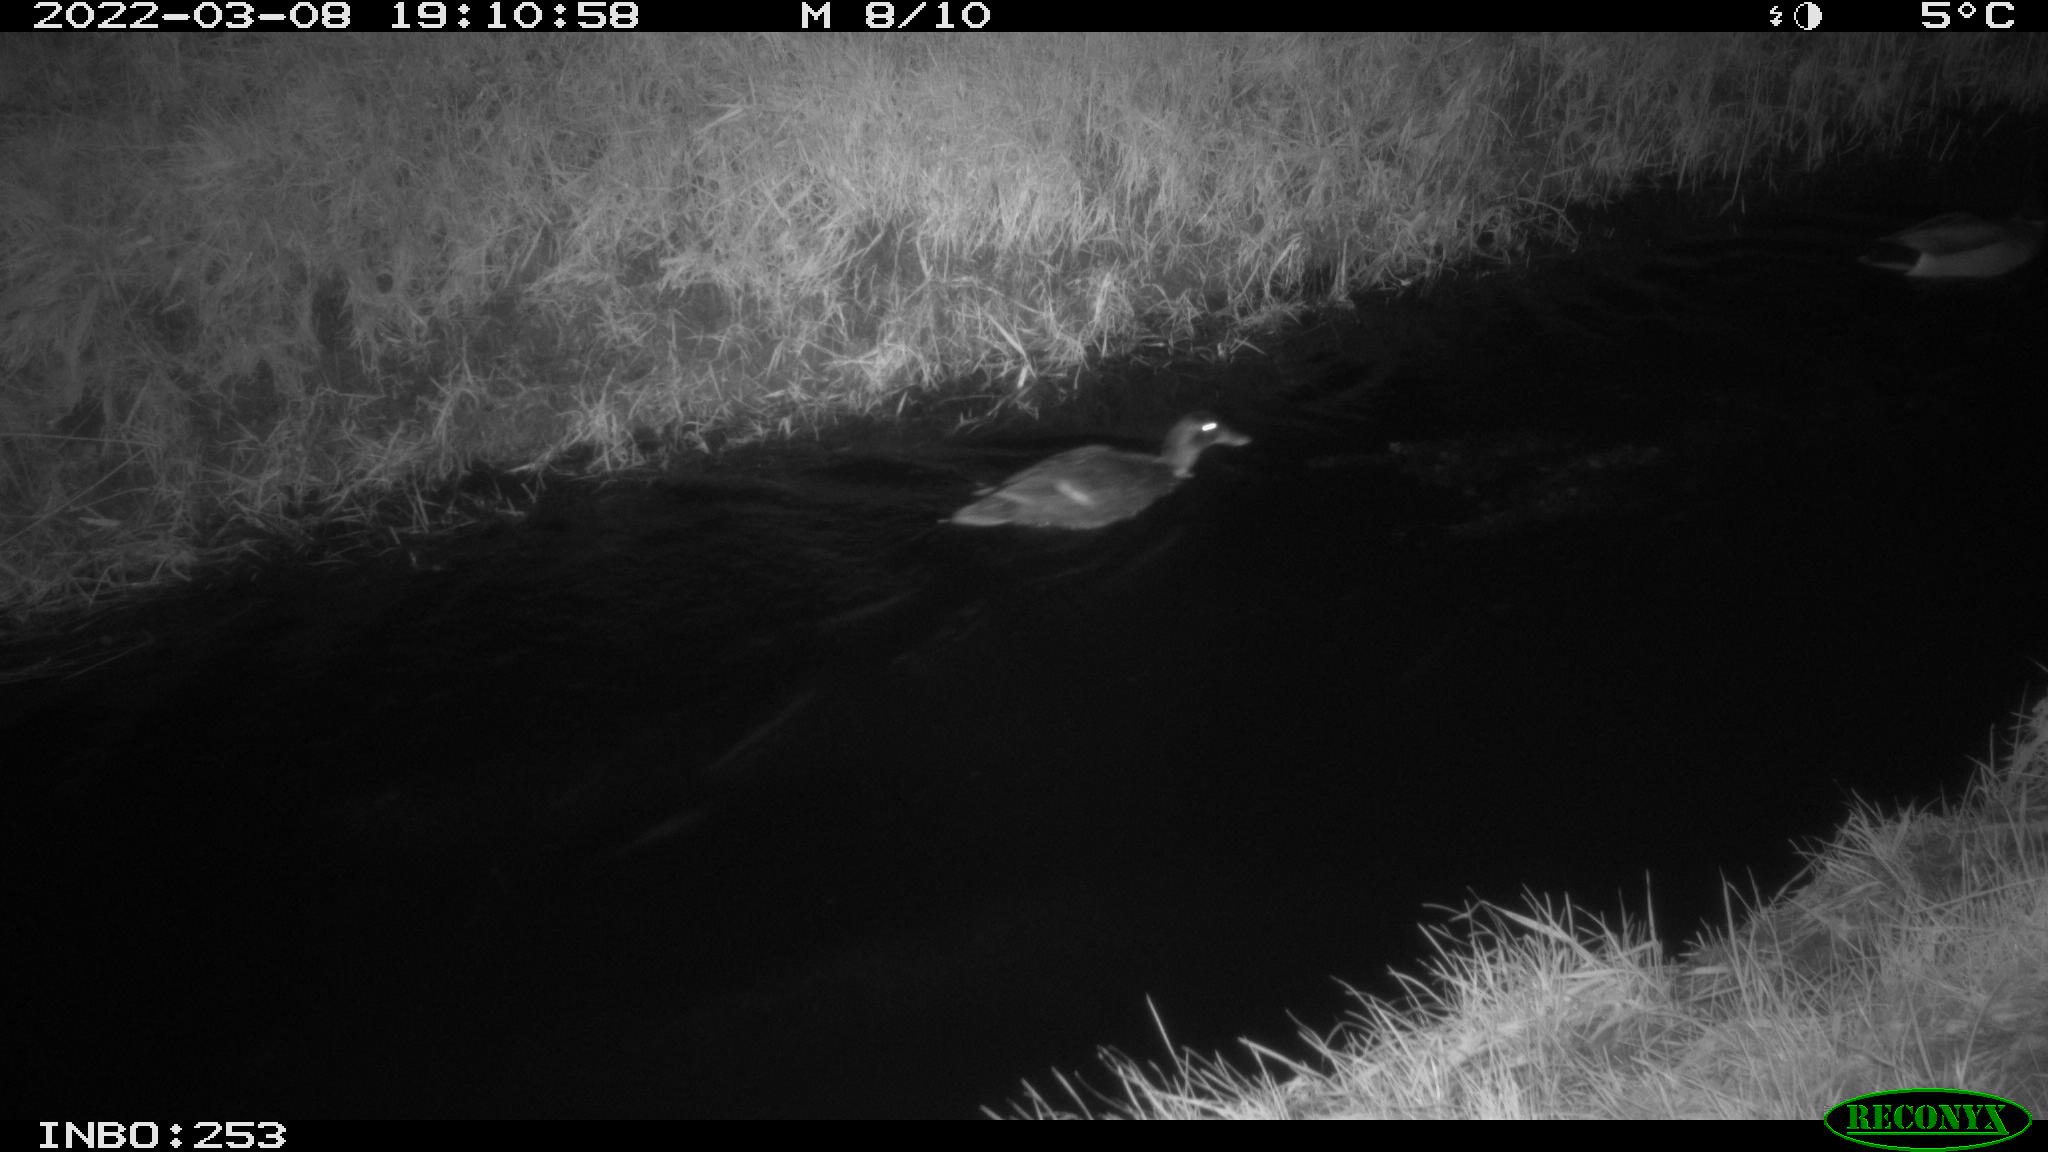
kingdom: Animalia
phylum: Chordata
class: Aves
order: Anseriformes
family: Anatidae
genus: Anas
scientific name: Anas platyrhynchos
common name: Mallard
